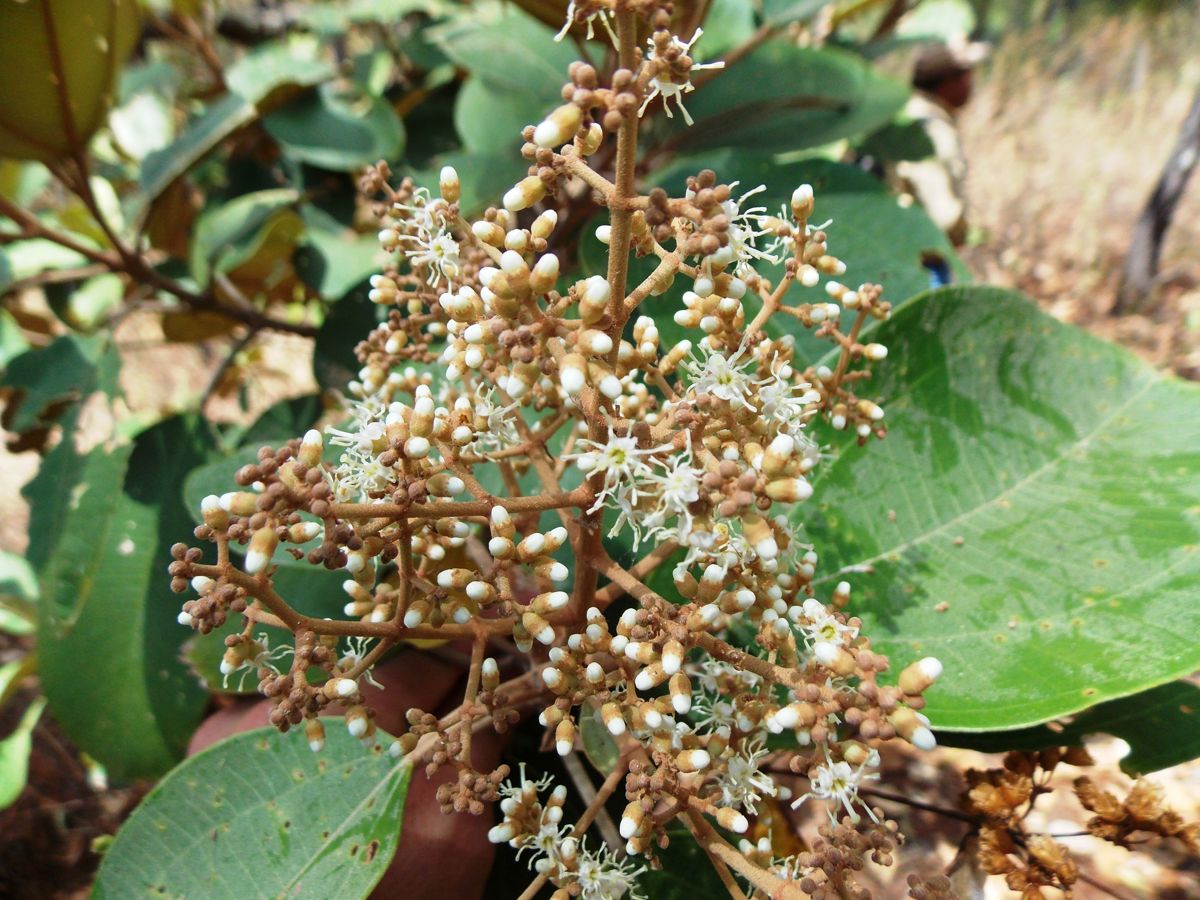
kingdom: Plantae
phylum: Tracheophyta
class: Magnoliopsida
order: Myrtales
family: Melastomataceae
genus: Miconia
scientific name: Miconia argentea
